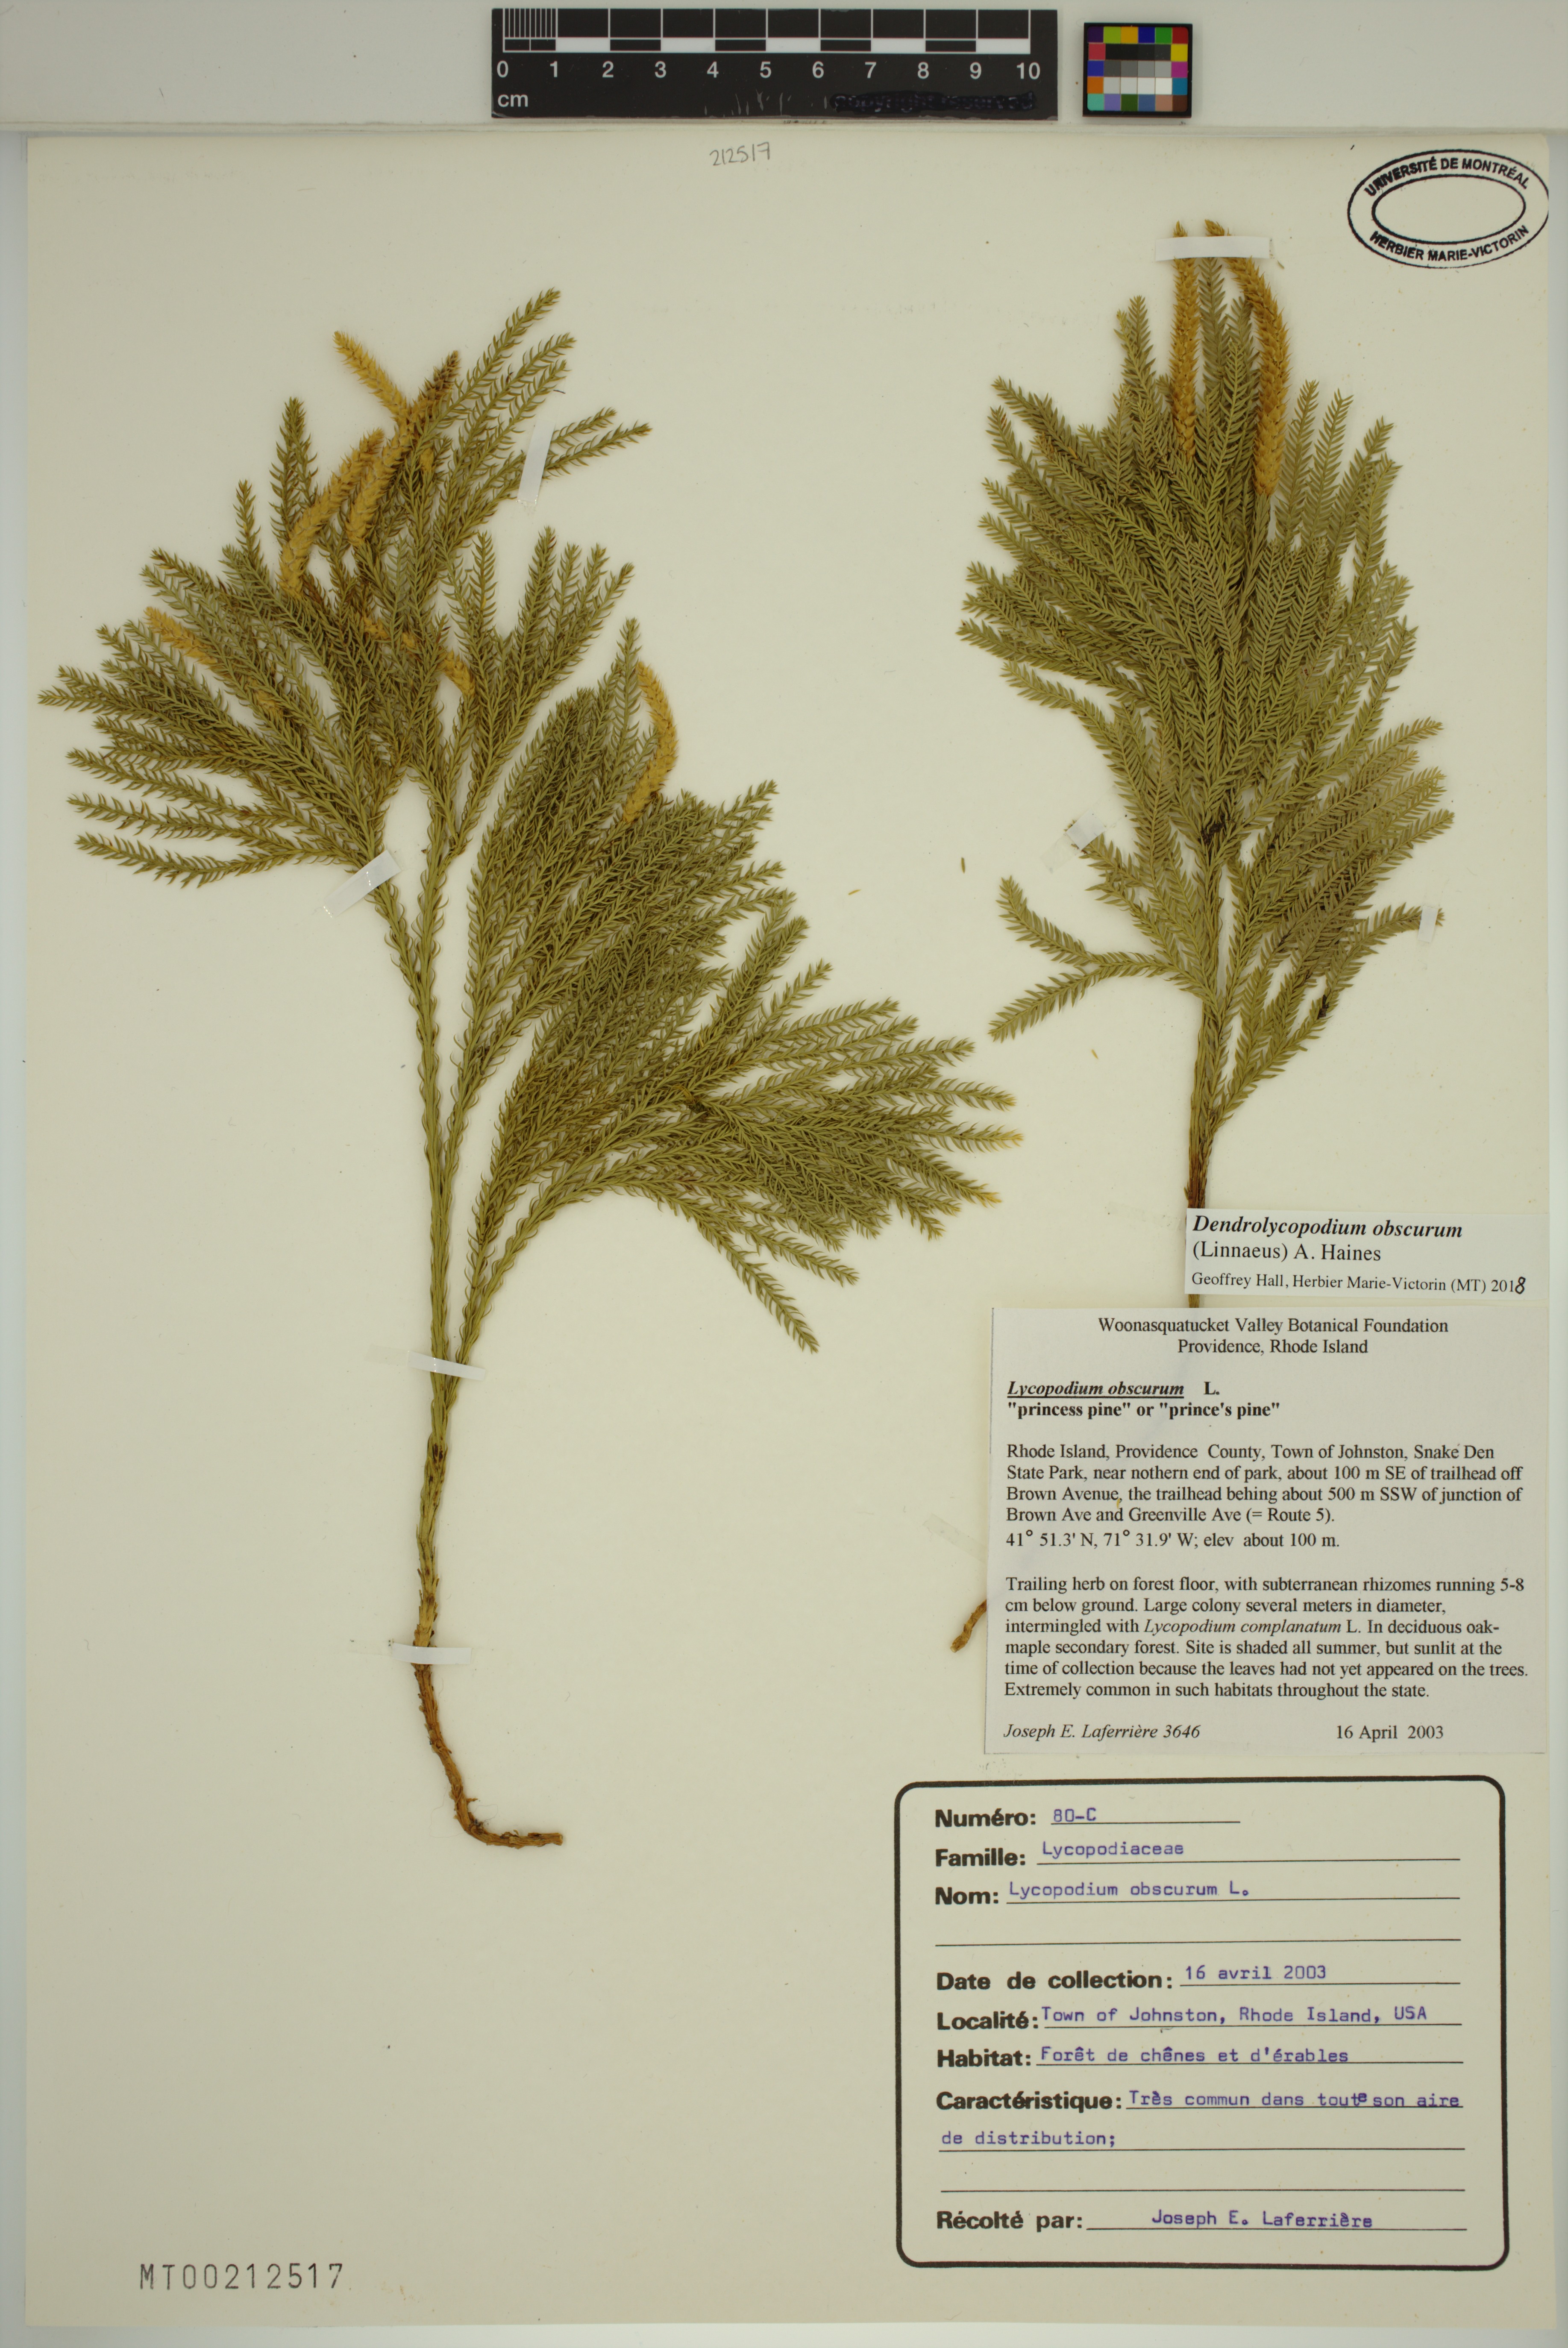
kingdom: Plantae
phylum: Tracheophyta
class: Lycopodiopsida
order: Lycopodiales
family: Lycopodiaceae
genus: Dendrolycopodium
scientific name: Dendrolycopodium obscurum
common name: Common ground-pine
